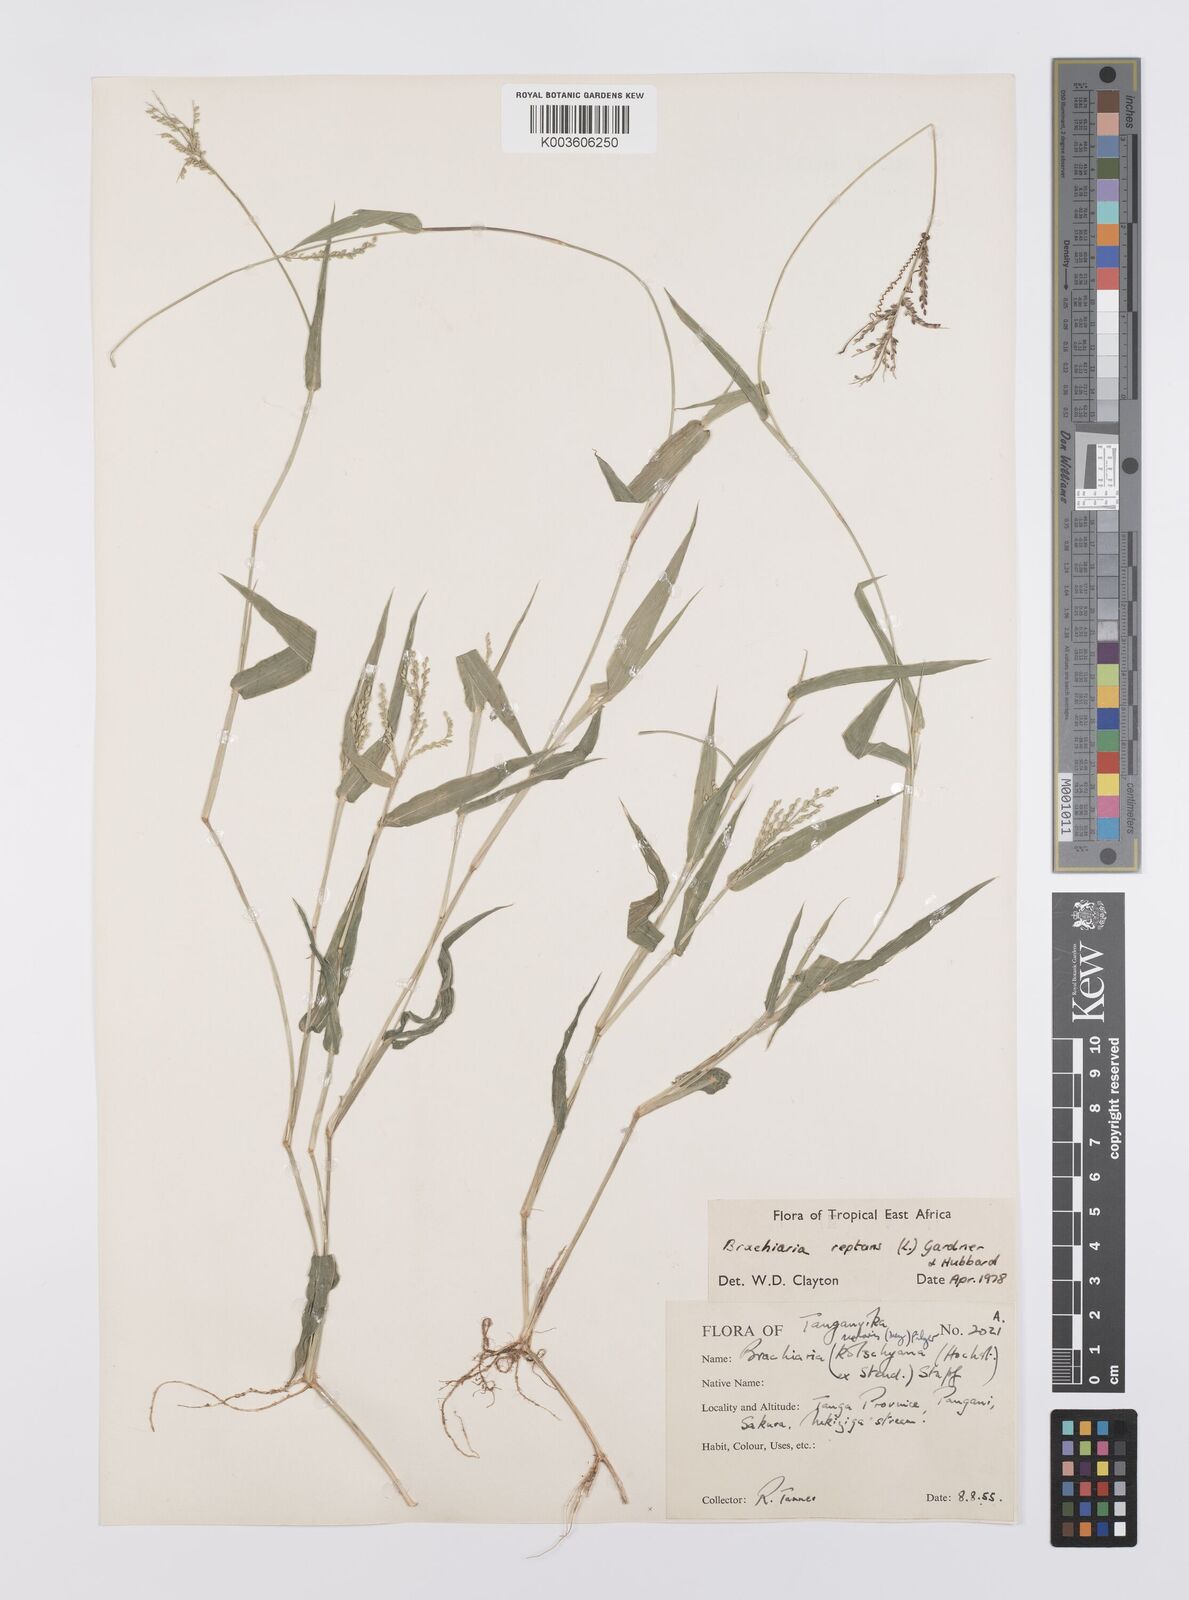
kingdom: Plantae
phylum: Tracheophyta
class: Liliopsida
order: Poales
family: Poaceae
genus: Urochloa
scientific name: Urochloa reptans
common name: Sprawling signalgrass
